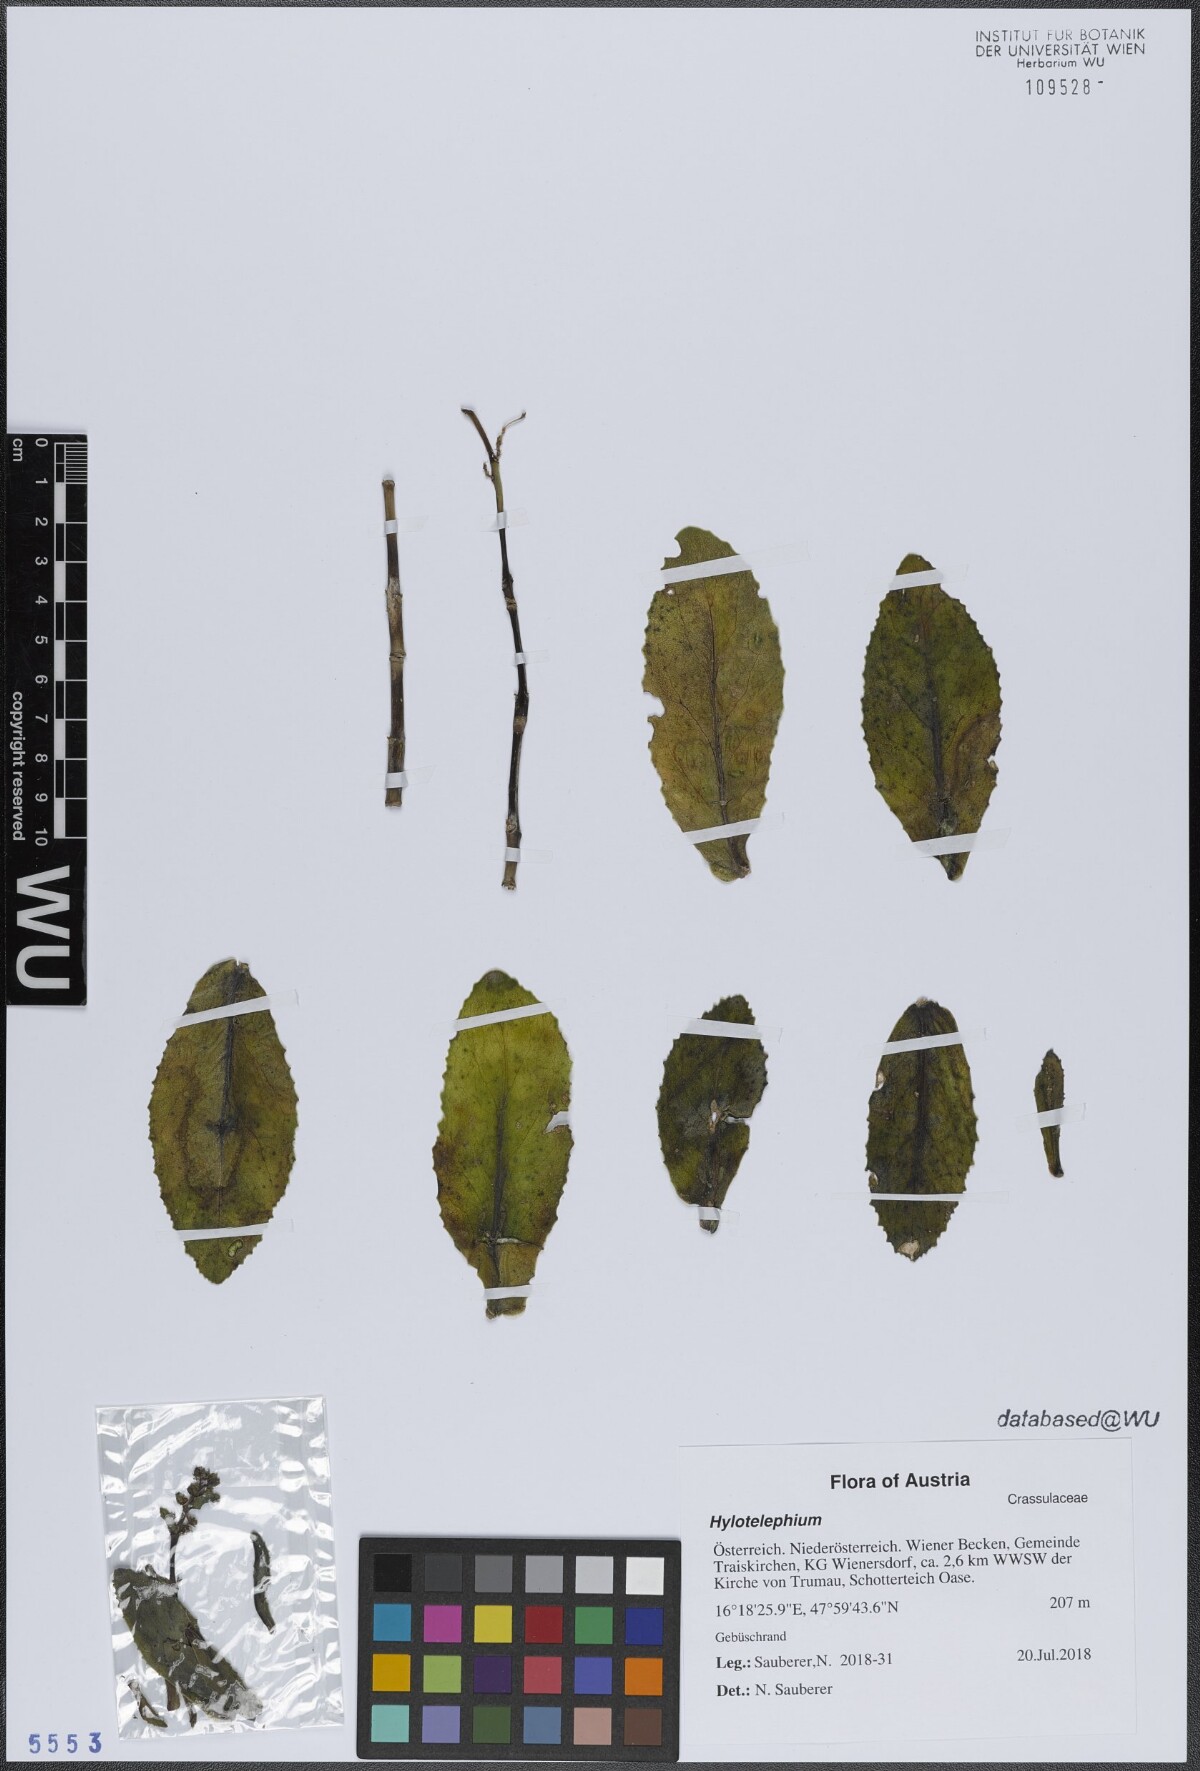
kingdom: Plantae
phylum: Tracheophyta
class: Magnoliopsida
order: Saxifragales
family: Crassulaceae
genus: Hylotelephium
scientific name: Hylotelephium
